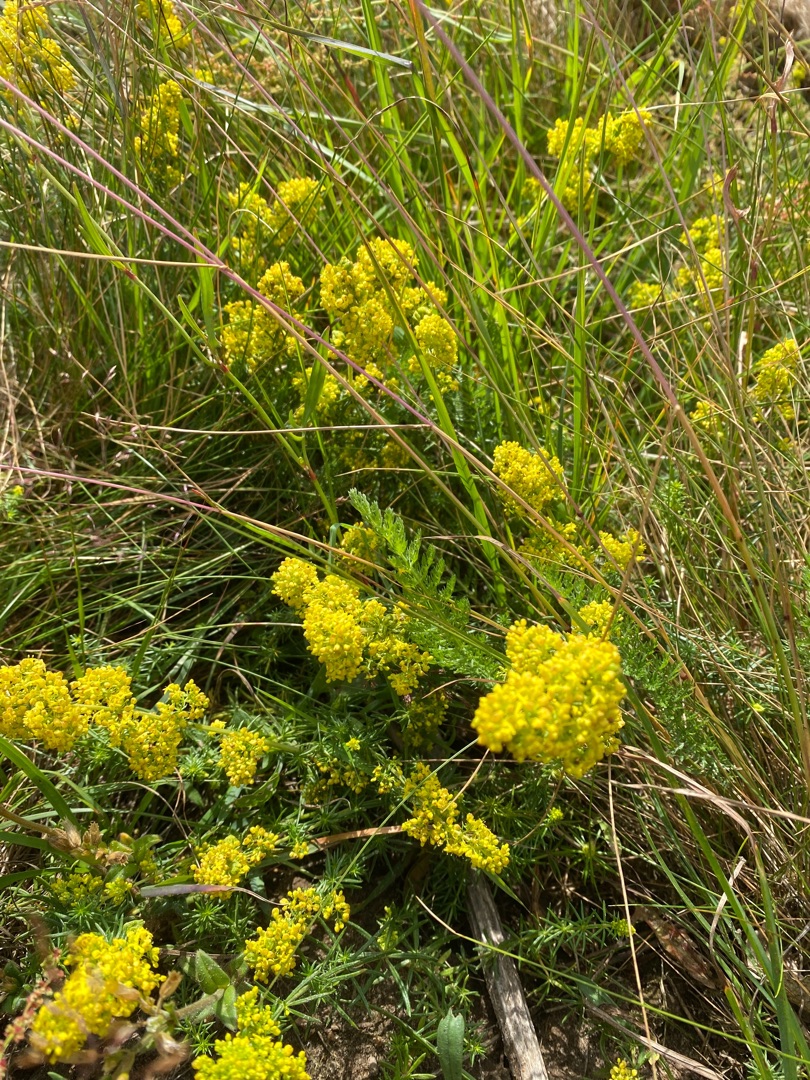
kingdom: Plantae
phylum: Tracheophyta
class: Magnoliopsida
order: Gentianales
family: Rubiaceae
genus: Galium
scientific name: Galium verum
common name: Gul snerre
